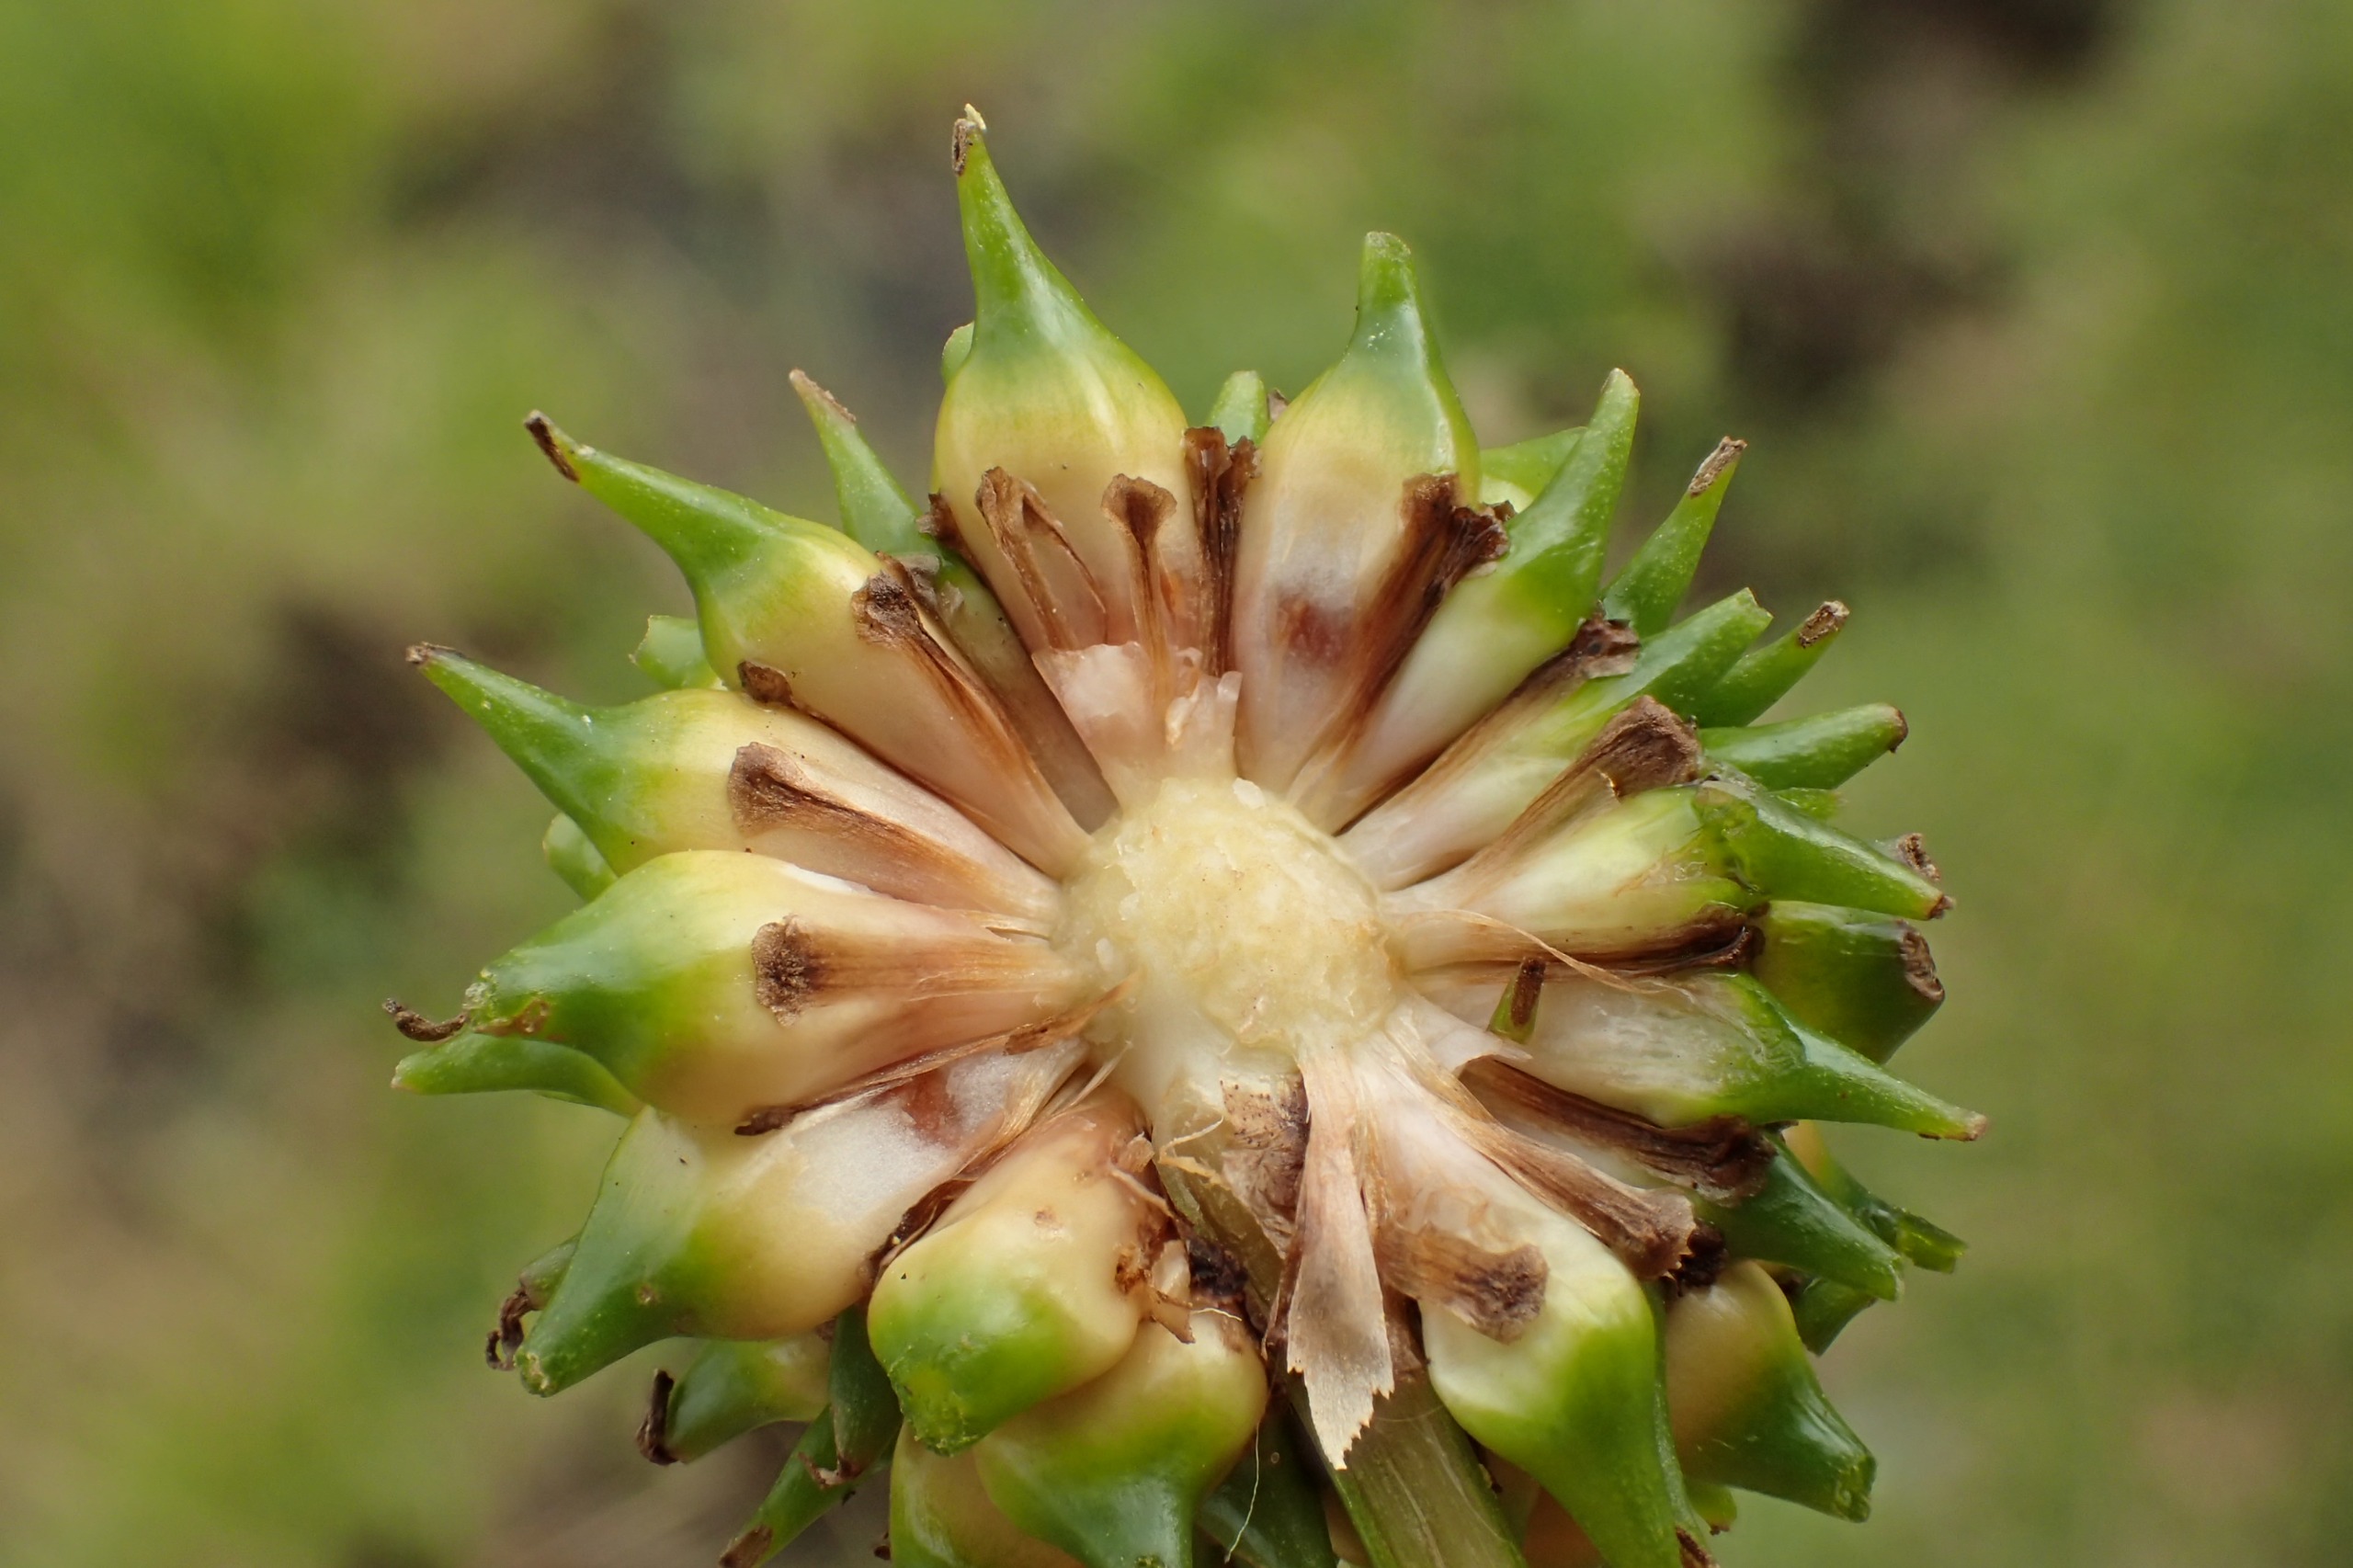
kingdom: Plantae
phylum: Tracheophyta
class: Liliopsida
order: Poales
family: Typhaceae
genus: Sparganium
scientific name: Sparganium erectum
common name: Grenet pindsvineknop
